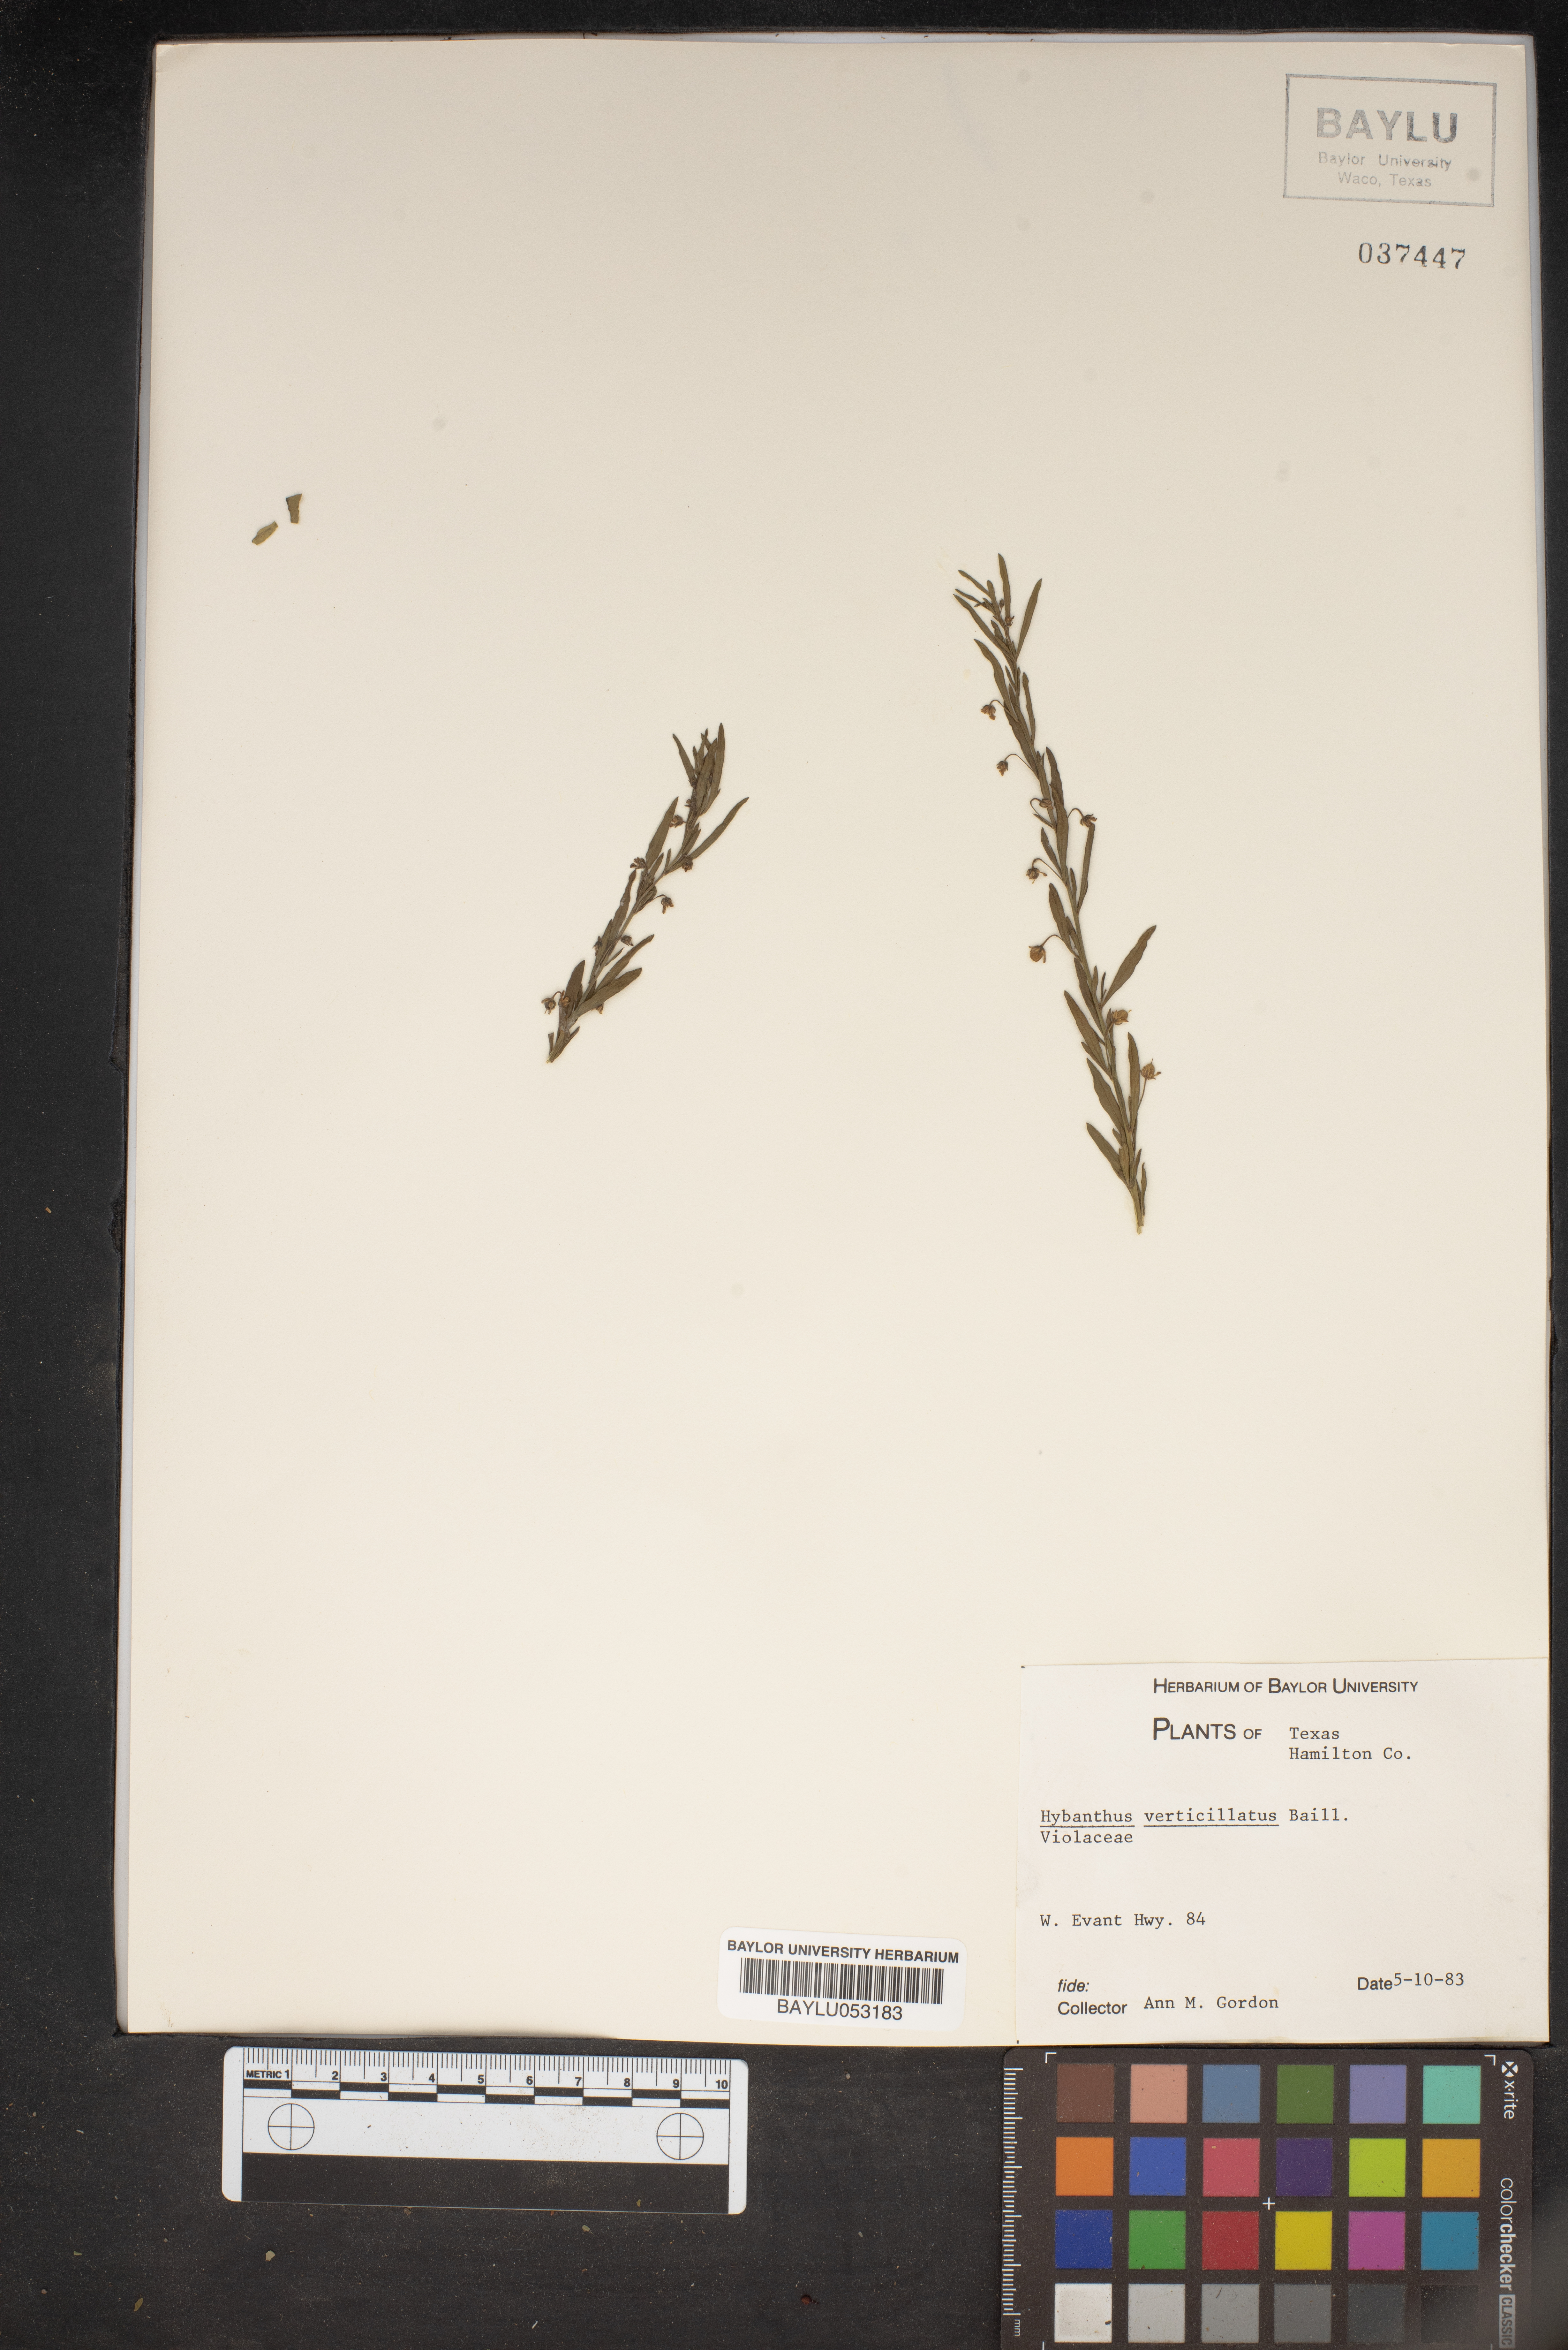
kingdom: Plantae
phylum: Tracheophyta
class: Magnoliopsida
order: Malpighiales
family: Violaceae
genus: Pombalia
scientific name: Pombalia verticillata
